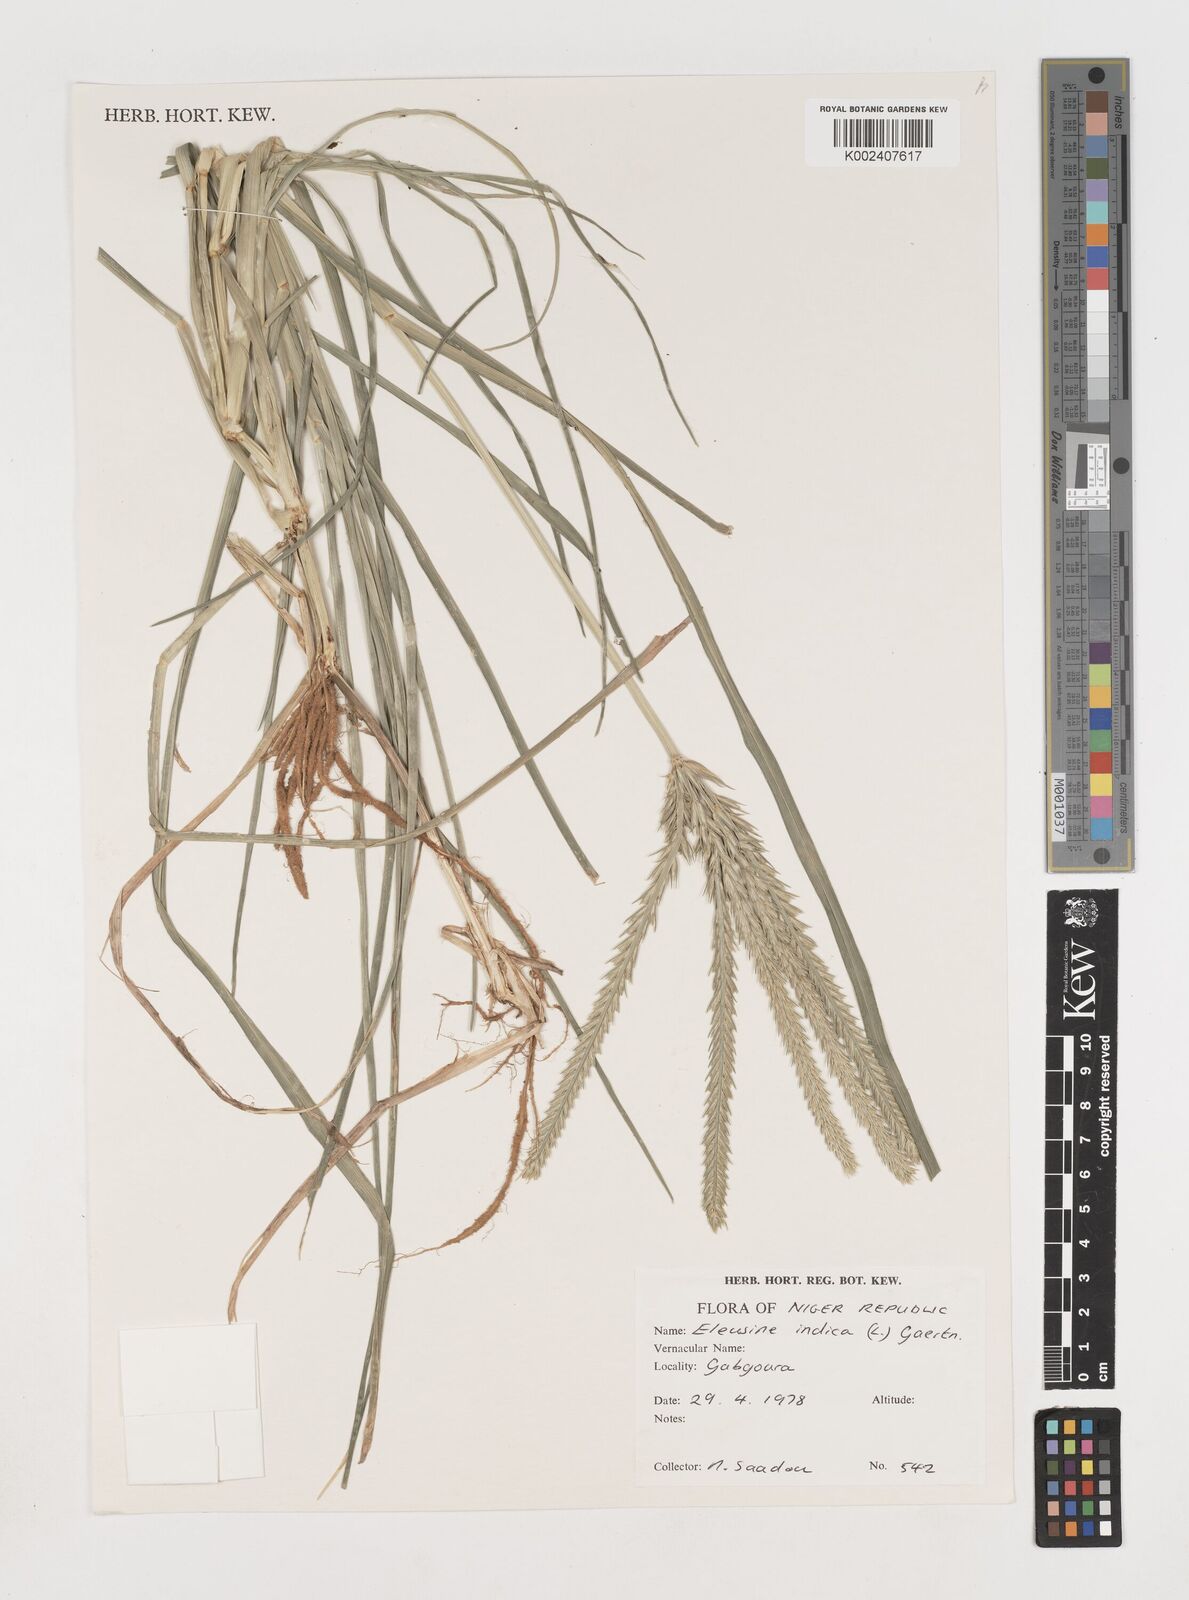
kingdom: Plantae
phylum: Tracheophyta
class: Liliopsida
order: Poales
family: Poaceae
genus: Eleusine
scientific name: Eleusine indica
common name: Yard-grass
